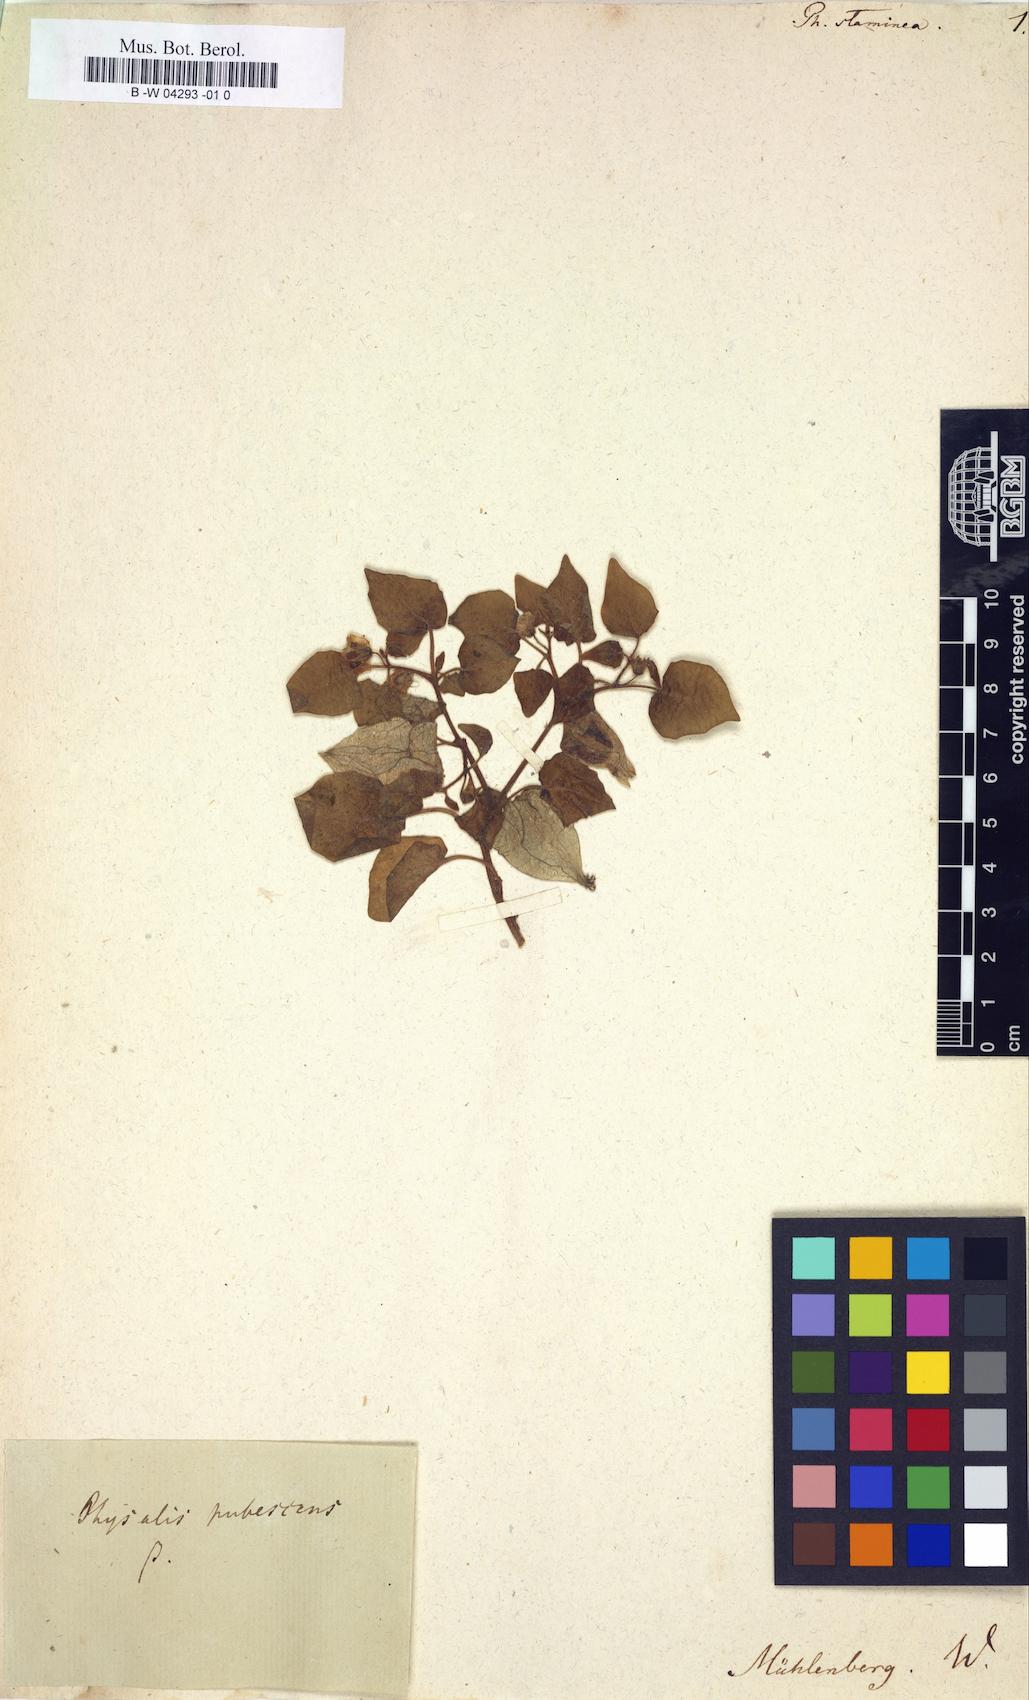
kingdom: Plantae
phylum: Tracheophyta
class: Magnoliopsida
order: Solanales
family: Solanaceae
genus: Physalis
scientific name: Physalis pubescens
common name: Downy ground-cherry
